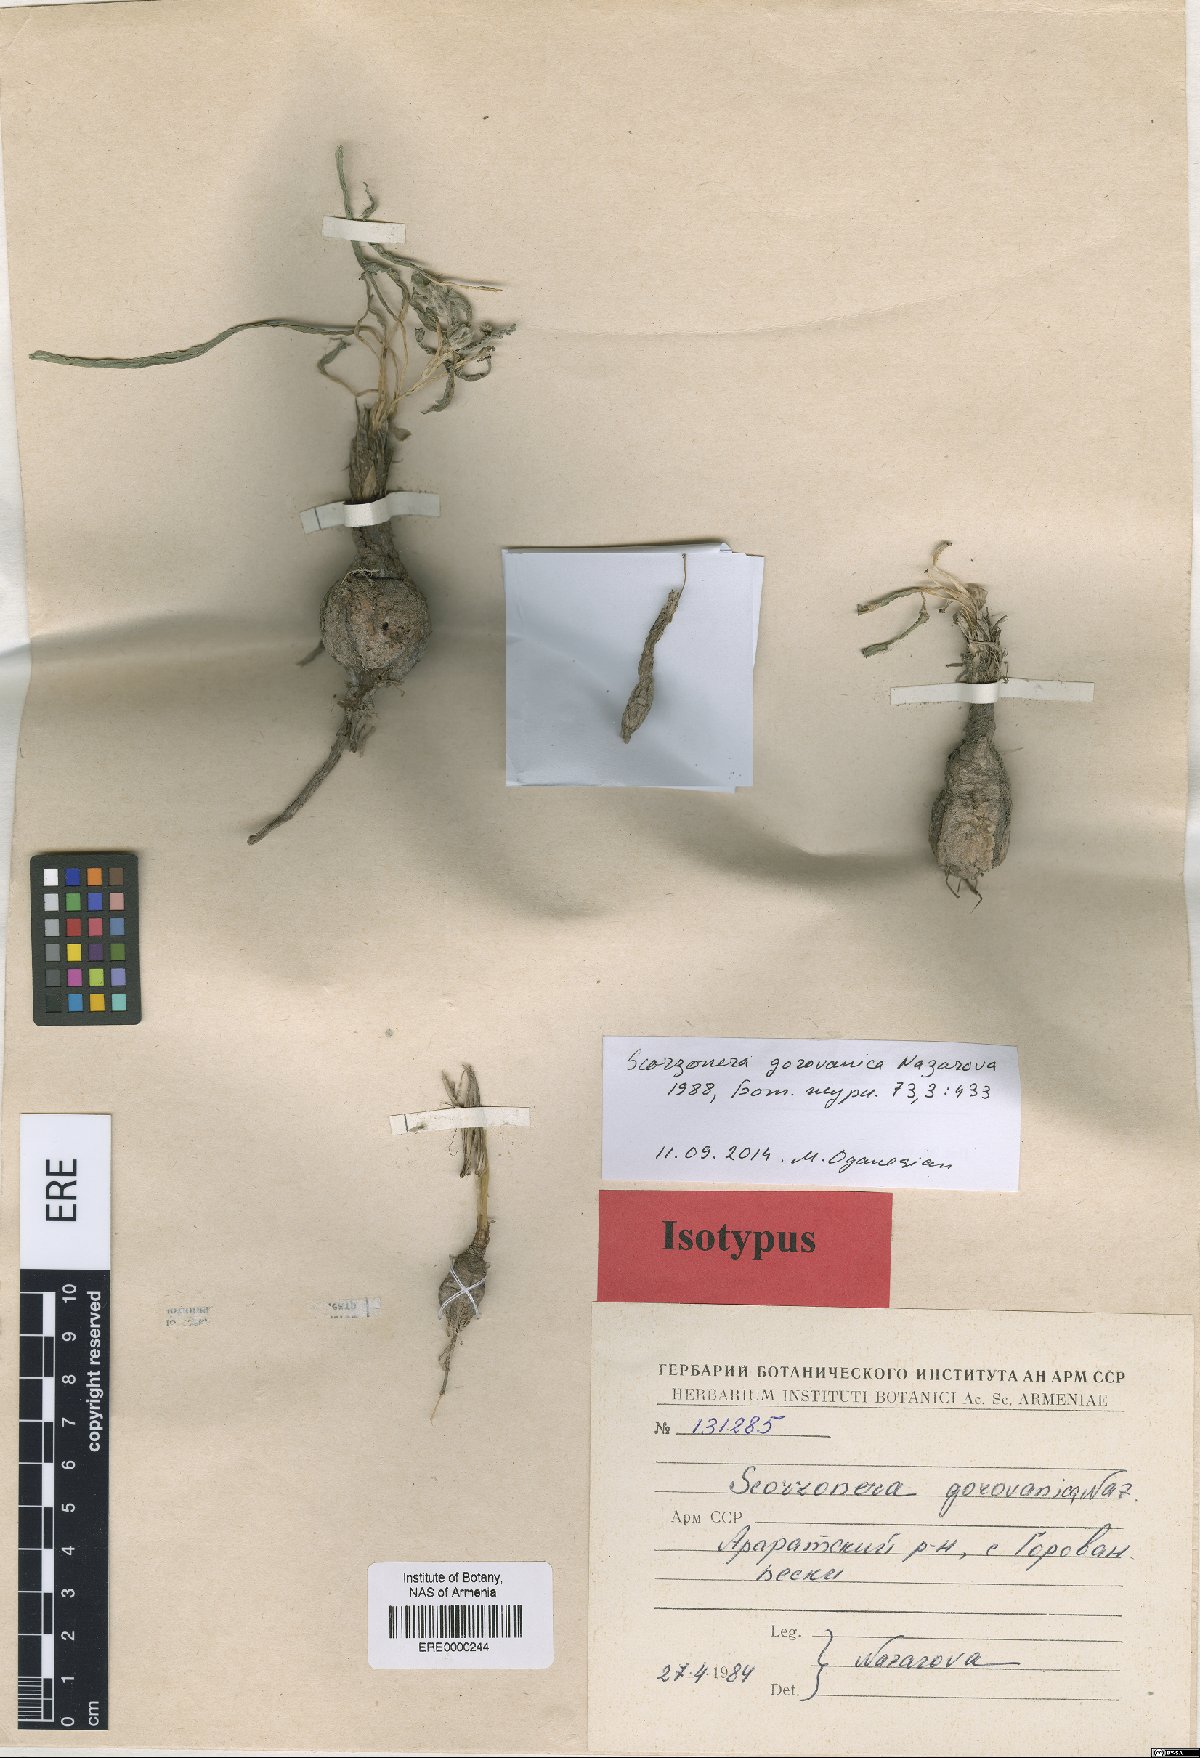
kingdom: Plantae
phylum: Tracheophyta
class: Magnoliopsida
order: Asterales
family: Asteraceae
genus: Scorzonera
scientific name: Scorzonera gorovanica
